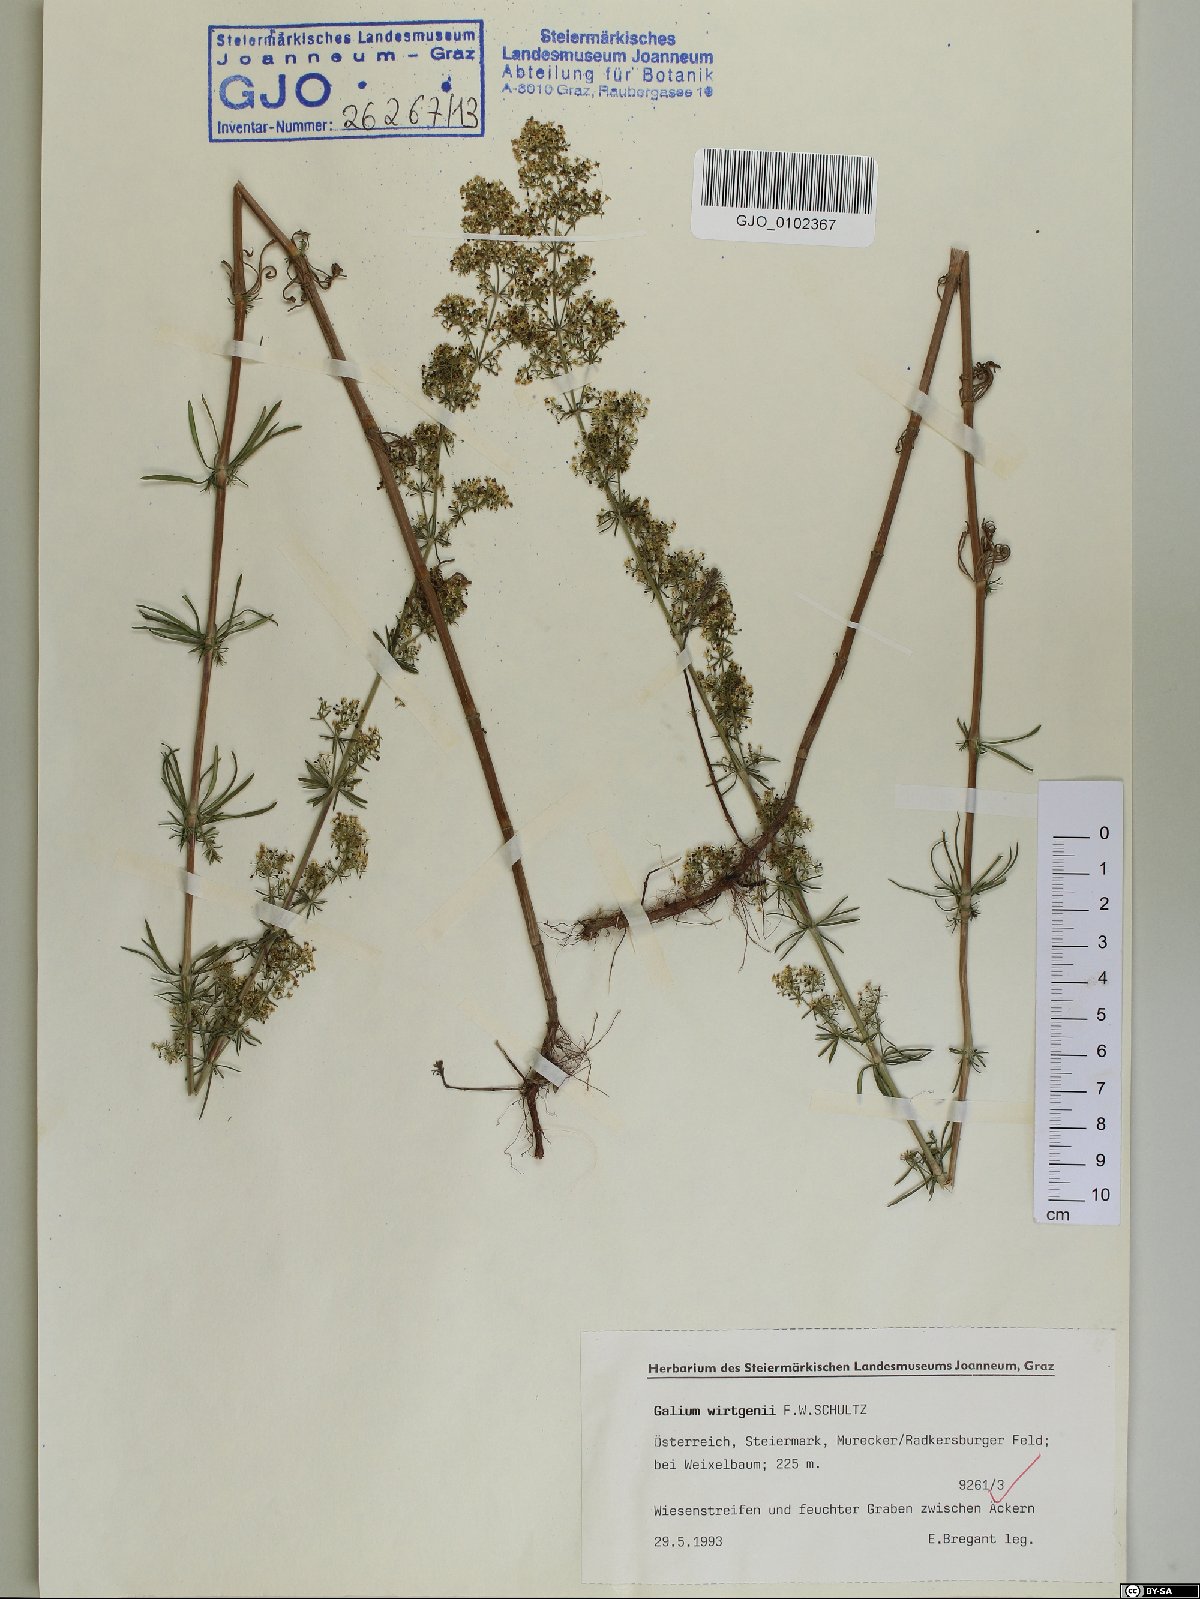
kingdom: Plantae
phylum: Tracheophyta
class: Magnoliopsida
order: Gentianales
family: Rubiaceae
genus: Galium
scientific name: Galium verum
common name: Lady's bedstraw
